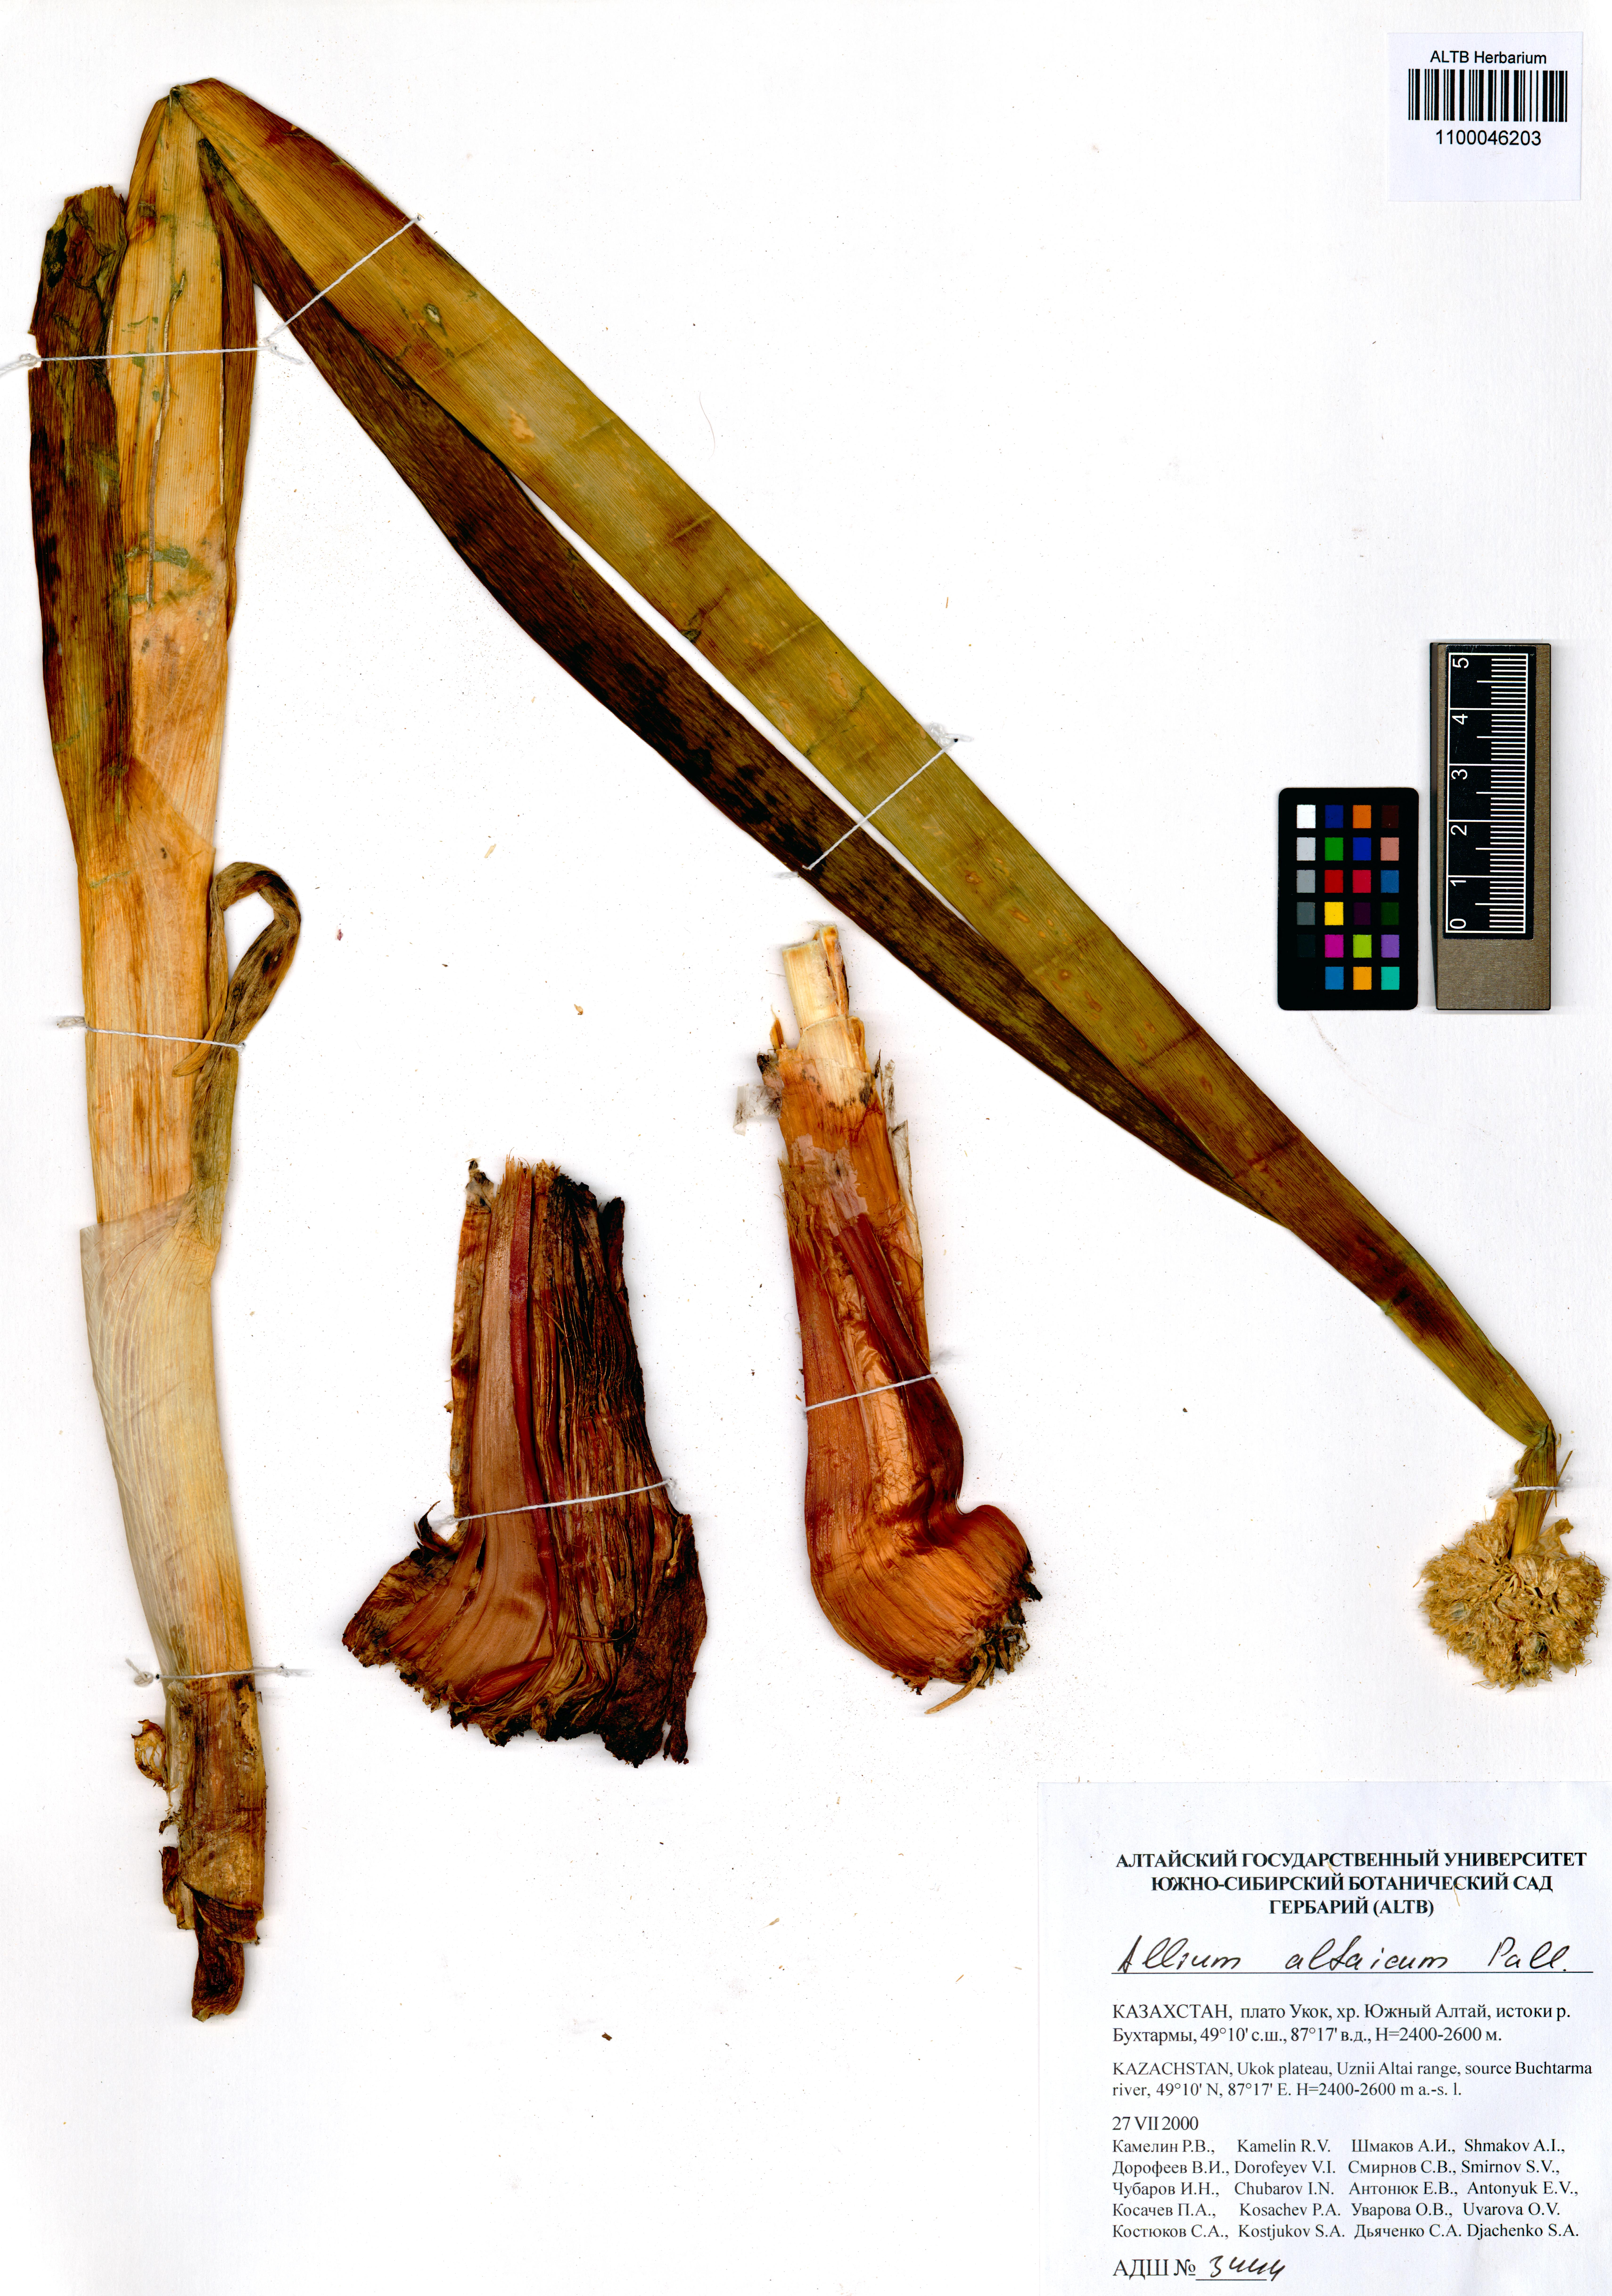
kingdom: Plantae
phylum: Tracheophyta
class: Liliopsida
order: Asparagales
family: Amaryllidaceae
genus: Allium
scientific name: Allium altaicum
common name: Altai onion
